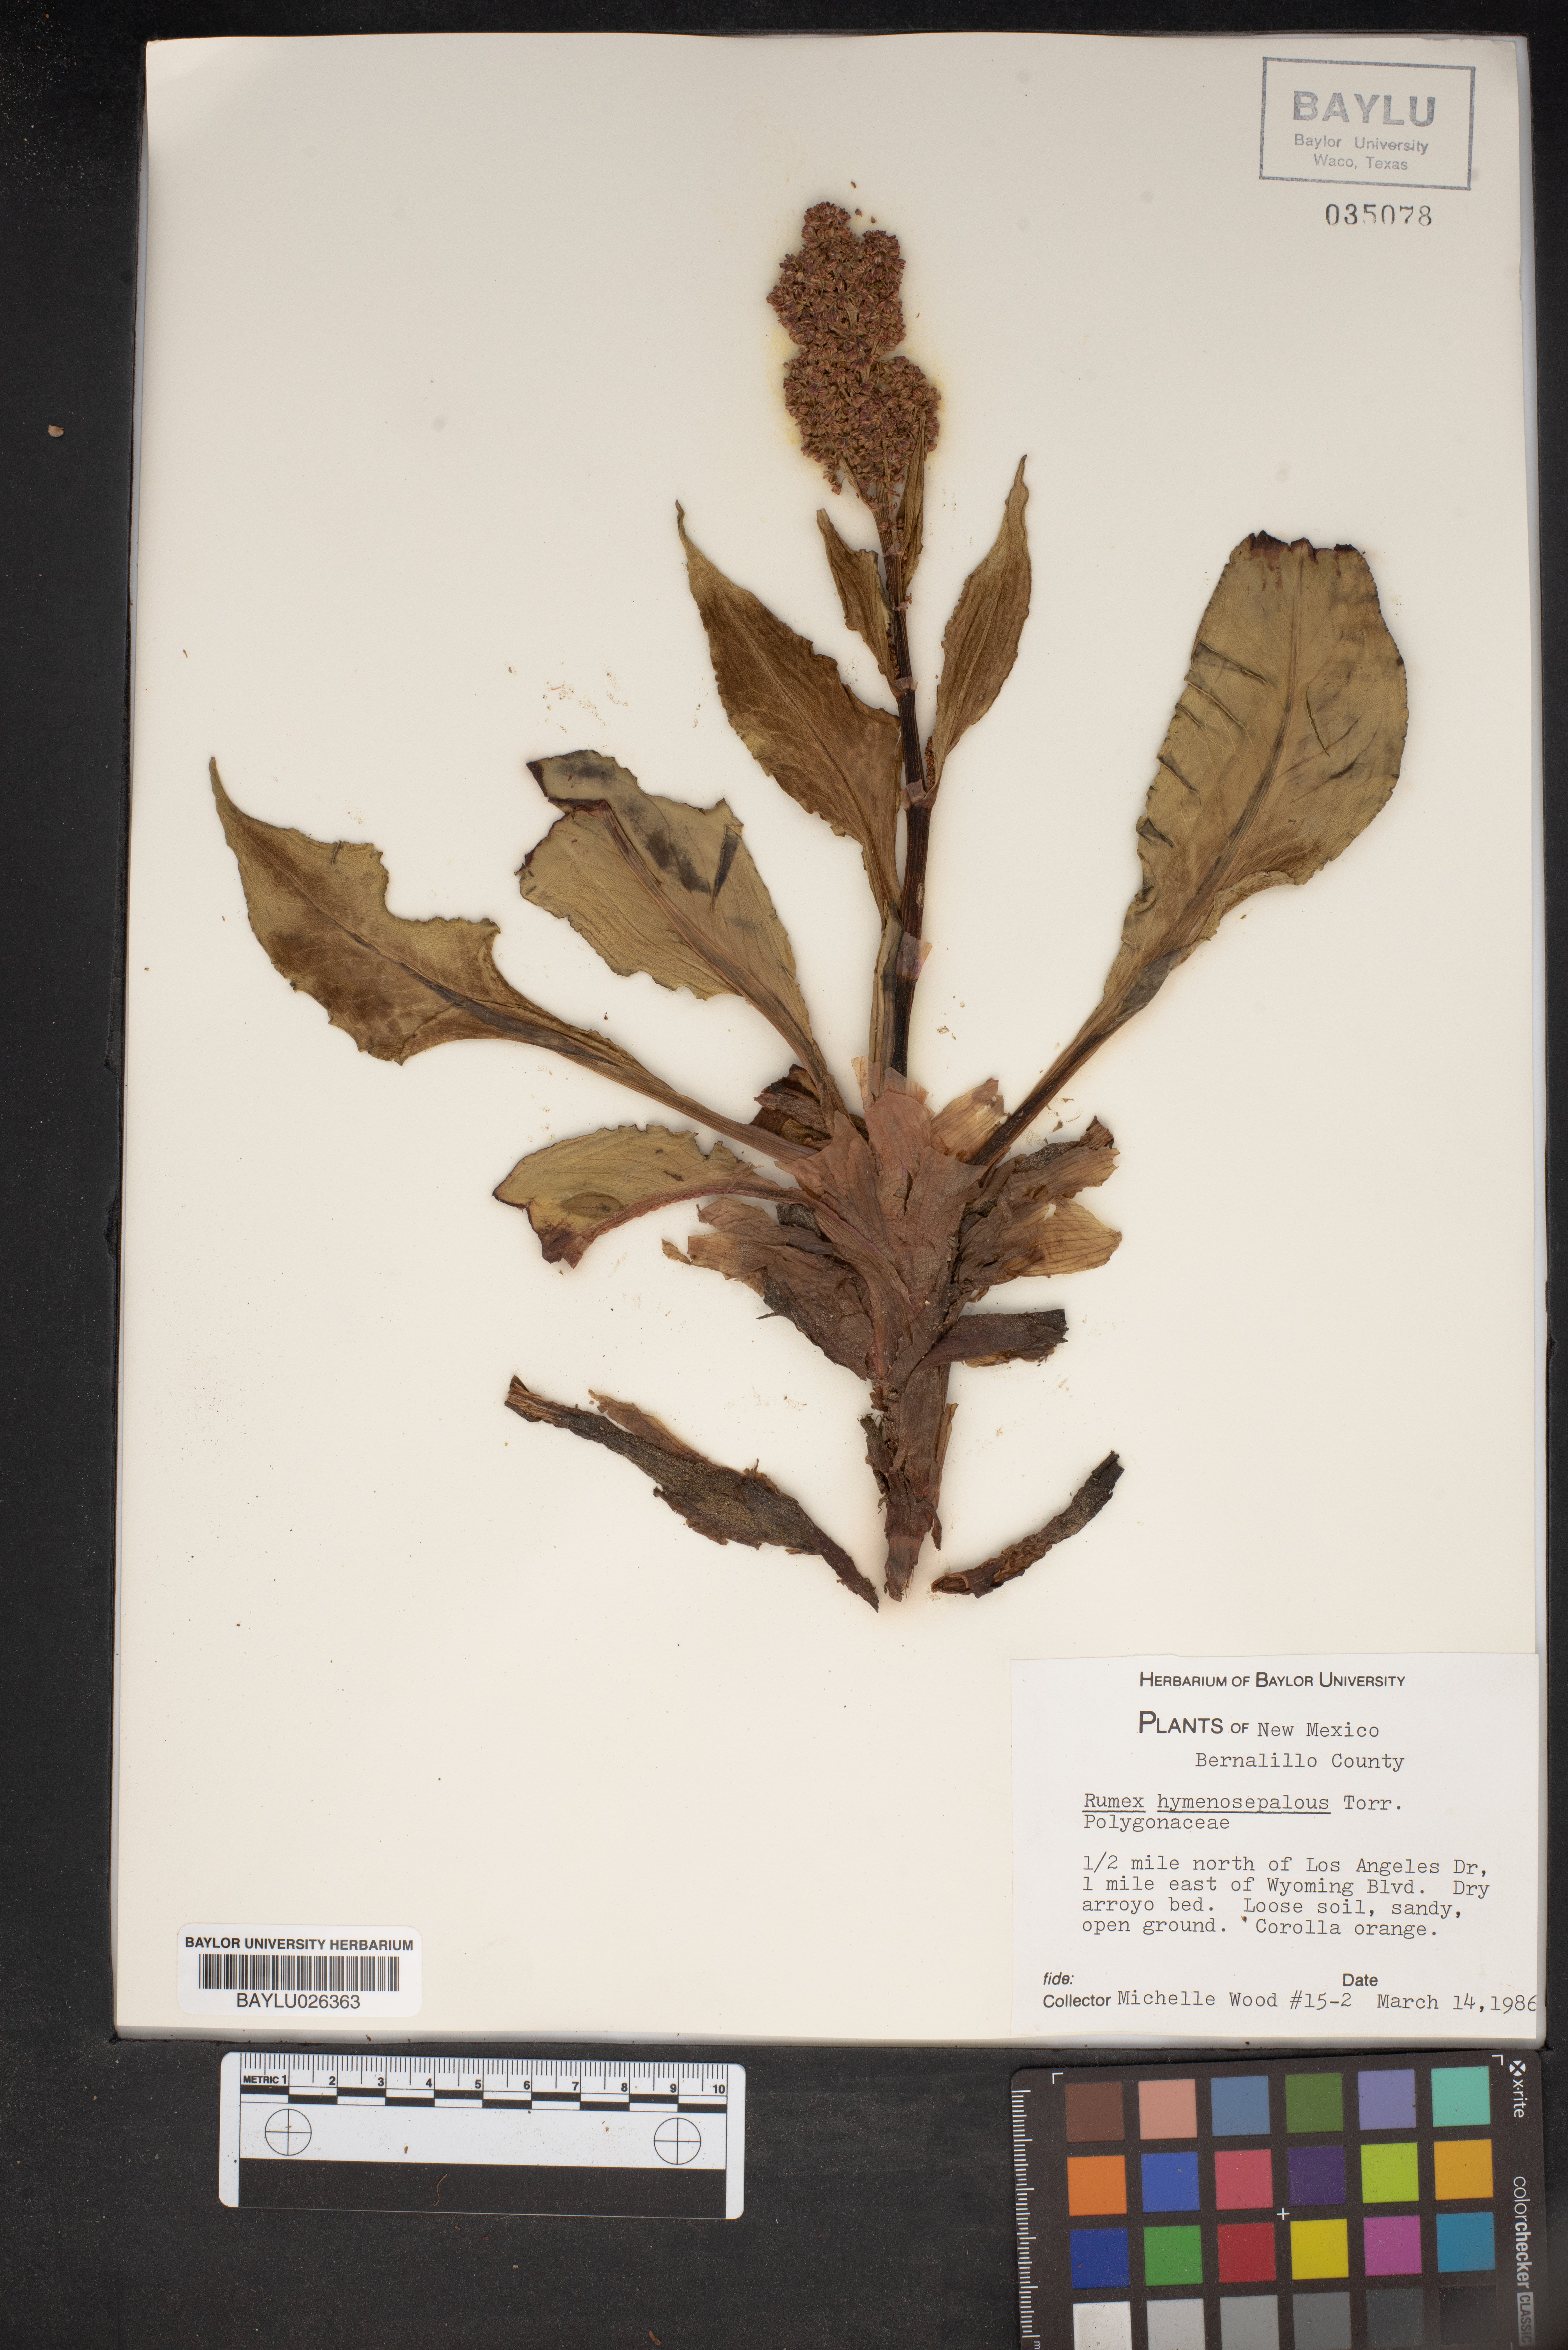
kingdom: Plantae
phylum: Tracheophyta
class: Magnoliopsida
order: Caryophyllales
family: Polygonaceae
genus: Rumex
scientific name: Rumex hymenosepalus
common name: Ganagra
